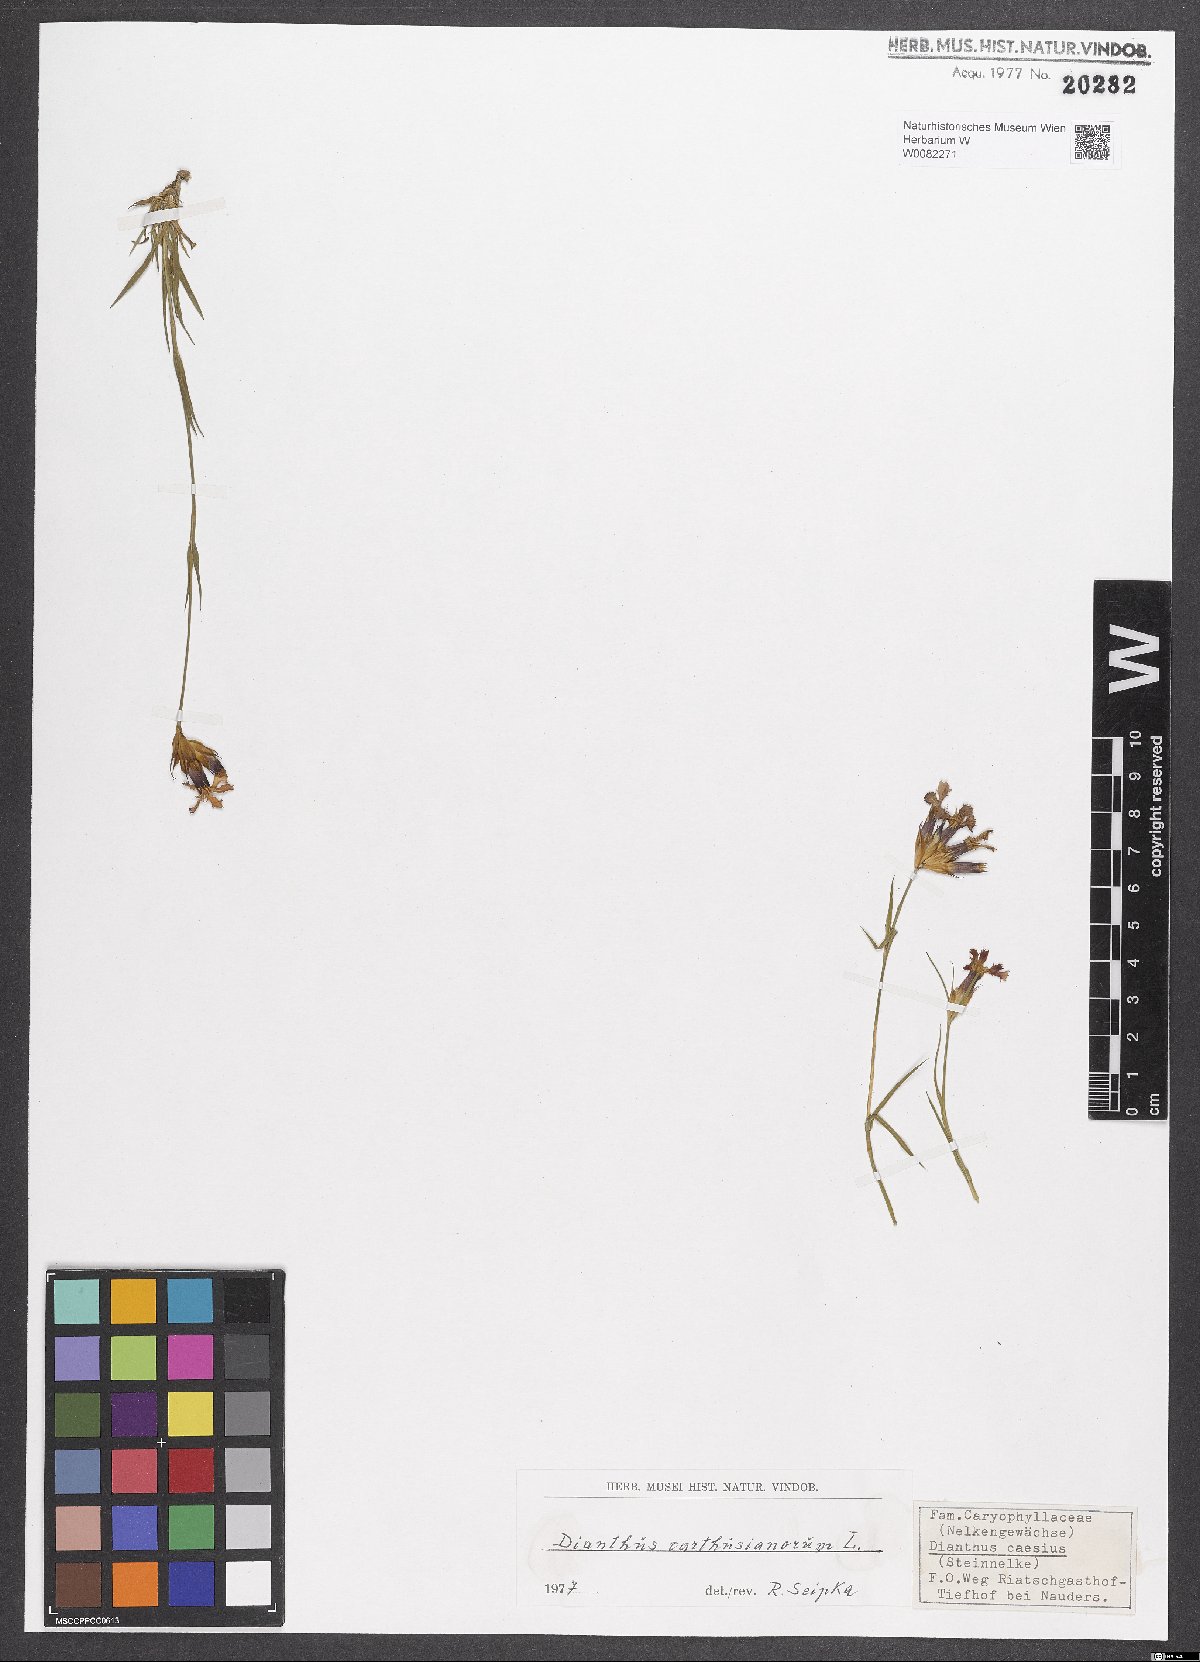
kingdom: Plantae
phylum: Tracheophyta
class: Magnoliopsida
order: Caryophyllales
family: Caryophyllaceae
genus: Dianthus
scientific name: Dianthus carthusianorum
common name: Carthusian pink
